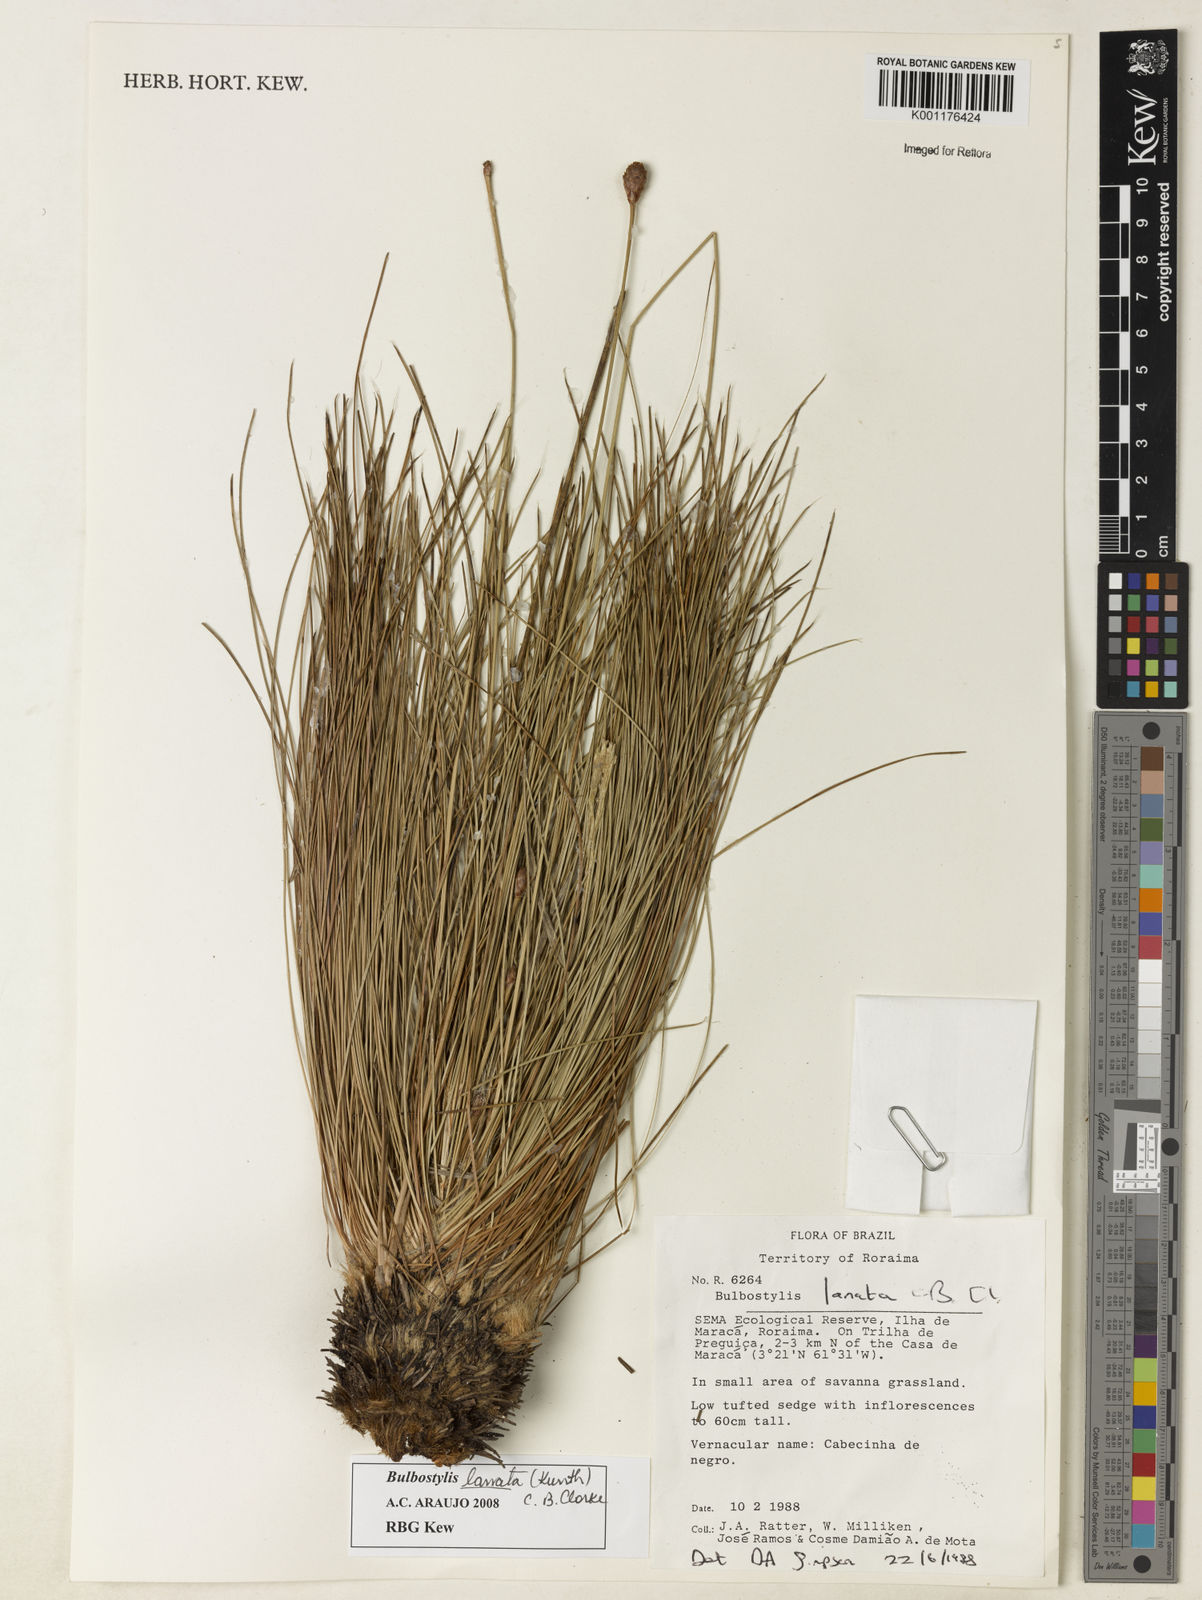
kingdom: Plantae
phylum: Tracheophyta
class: Liliopsida
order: Poales
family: Cyperaceae
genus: Bulbostylis
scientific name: Bulbostylis lanata
